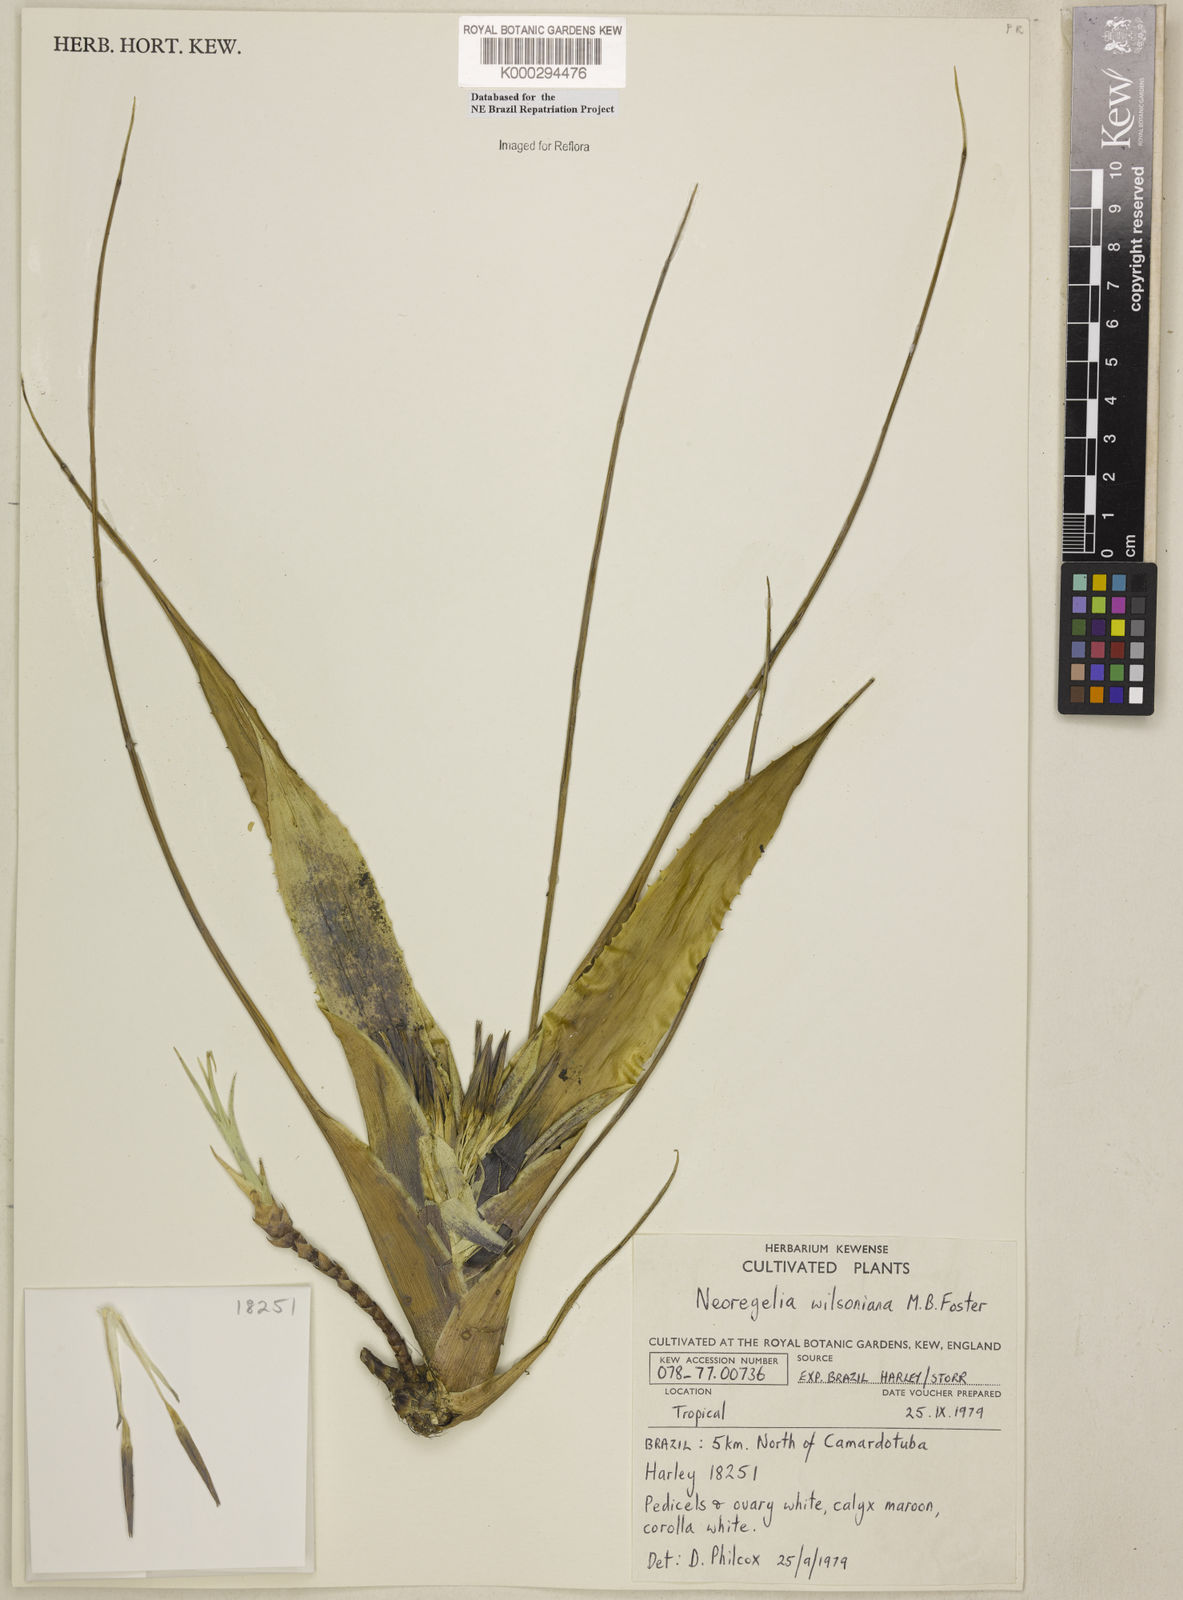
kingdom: Plantae
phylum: Tracheophyta
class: Liliopsida
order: Poales
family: Bromeliaceae
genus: Neoregelia
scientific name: Neoregelia wilsoniana
